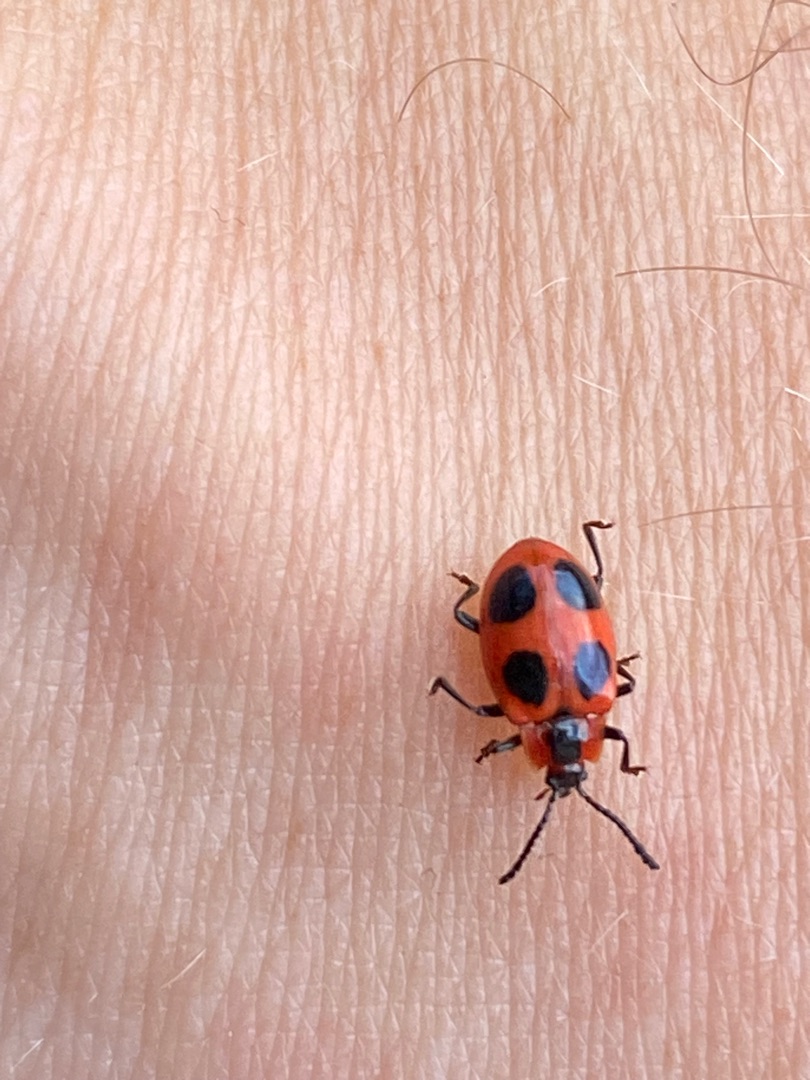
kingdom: Animalia
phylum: Arthropoda
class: Insecta
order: Coleoptera
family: Endomychidae
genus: Endomychus
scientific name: Endomychus coccineus
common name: Skarlagensvampehøne
